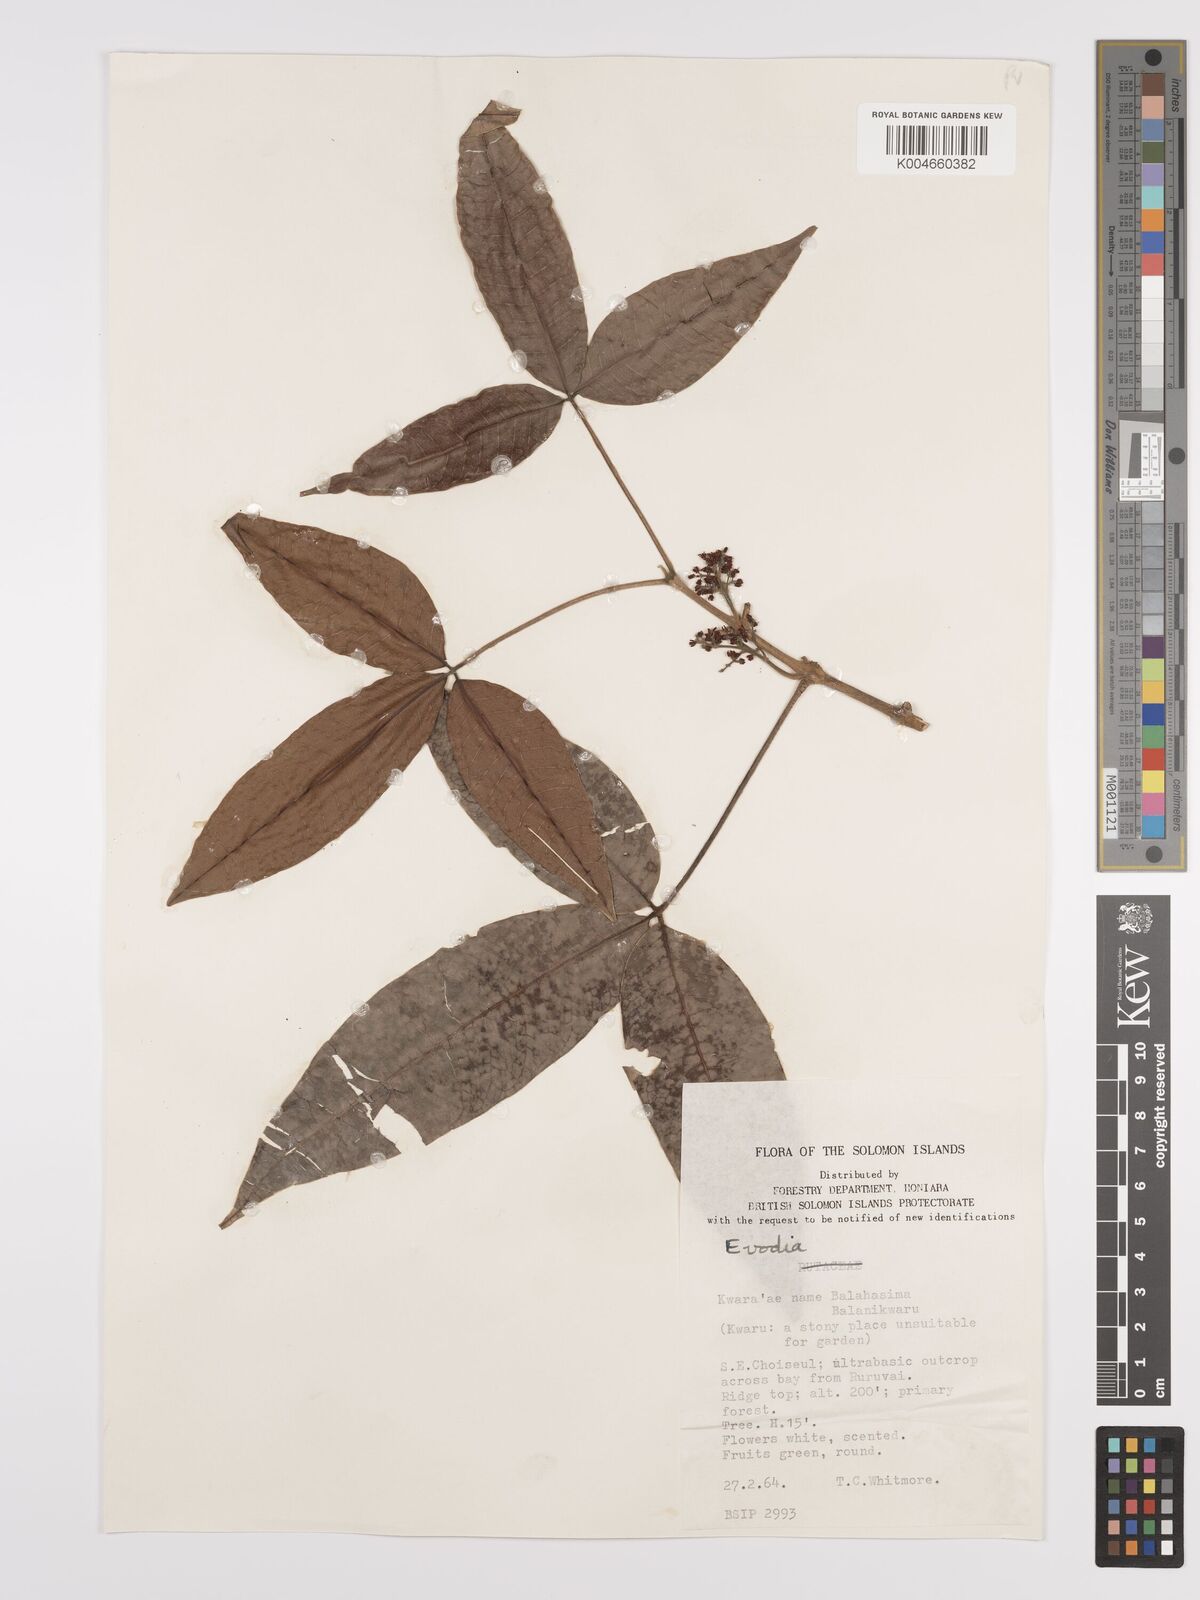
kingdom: Plantae
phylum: Tracheophyta
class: Magnoliopsida
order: Sapindales
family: Rutaceae
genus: Euodia
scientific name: Euodia
